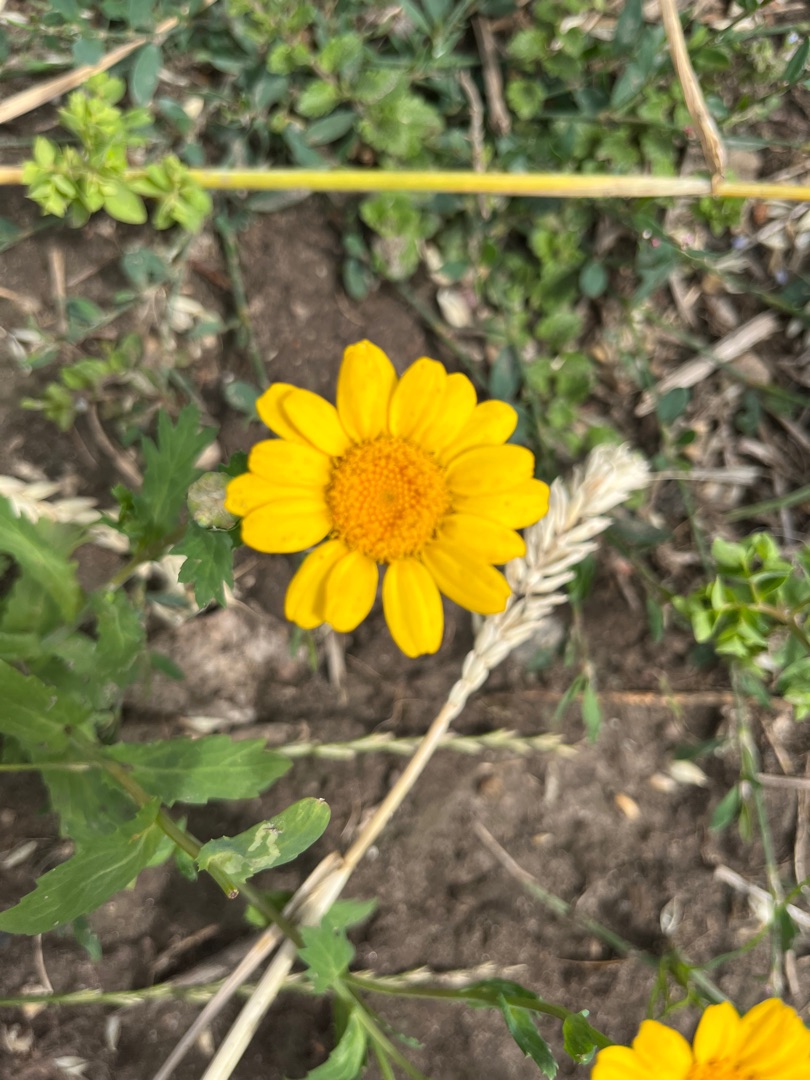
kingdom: Plantae
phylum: Tracheophyta
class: Magnoliopsida
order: Asterales
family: Asteraceae
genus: Glebionis
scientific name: Glebionis segetum
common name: Gul okseøje
